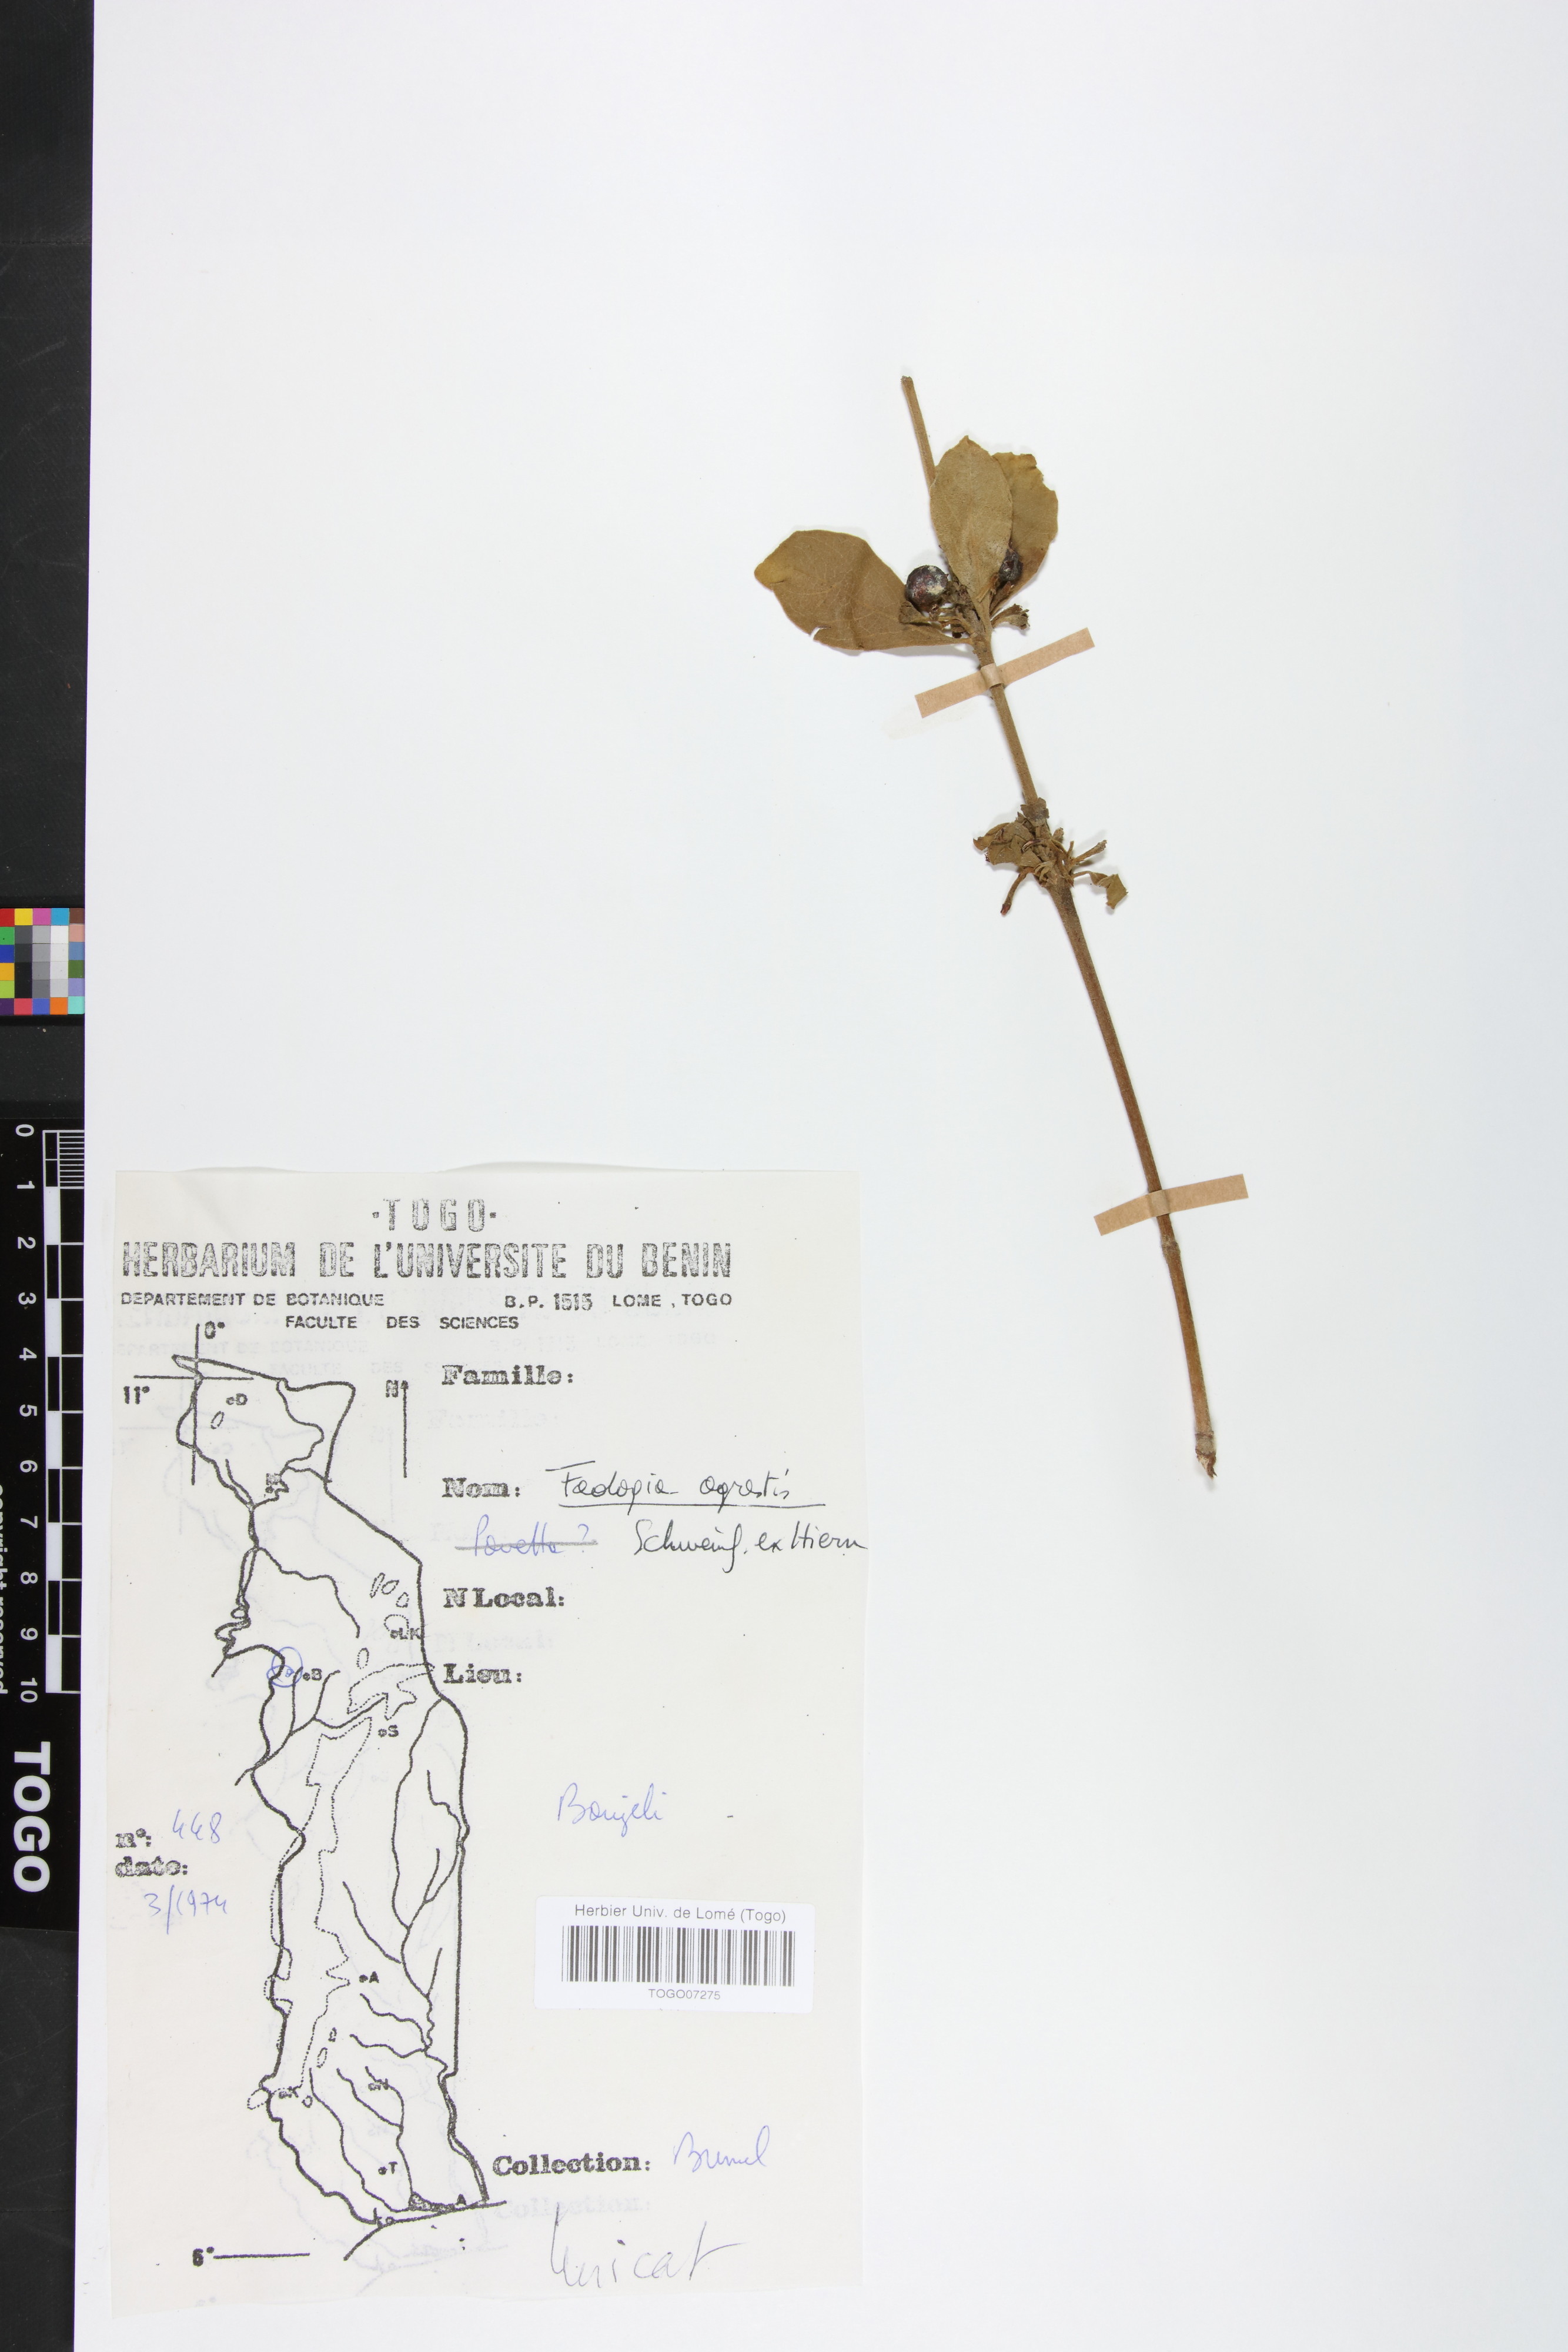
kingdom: Plantae
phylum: Tracheophyta
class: Magnoliopsida
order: Gentianales
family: Rubiaceae
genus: Vangueria
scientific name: Vangueria agrestis
